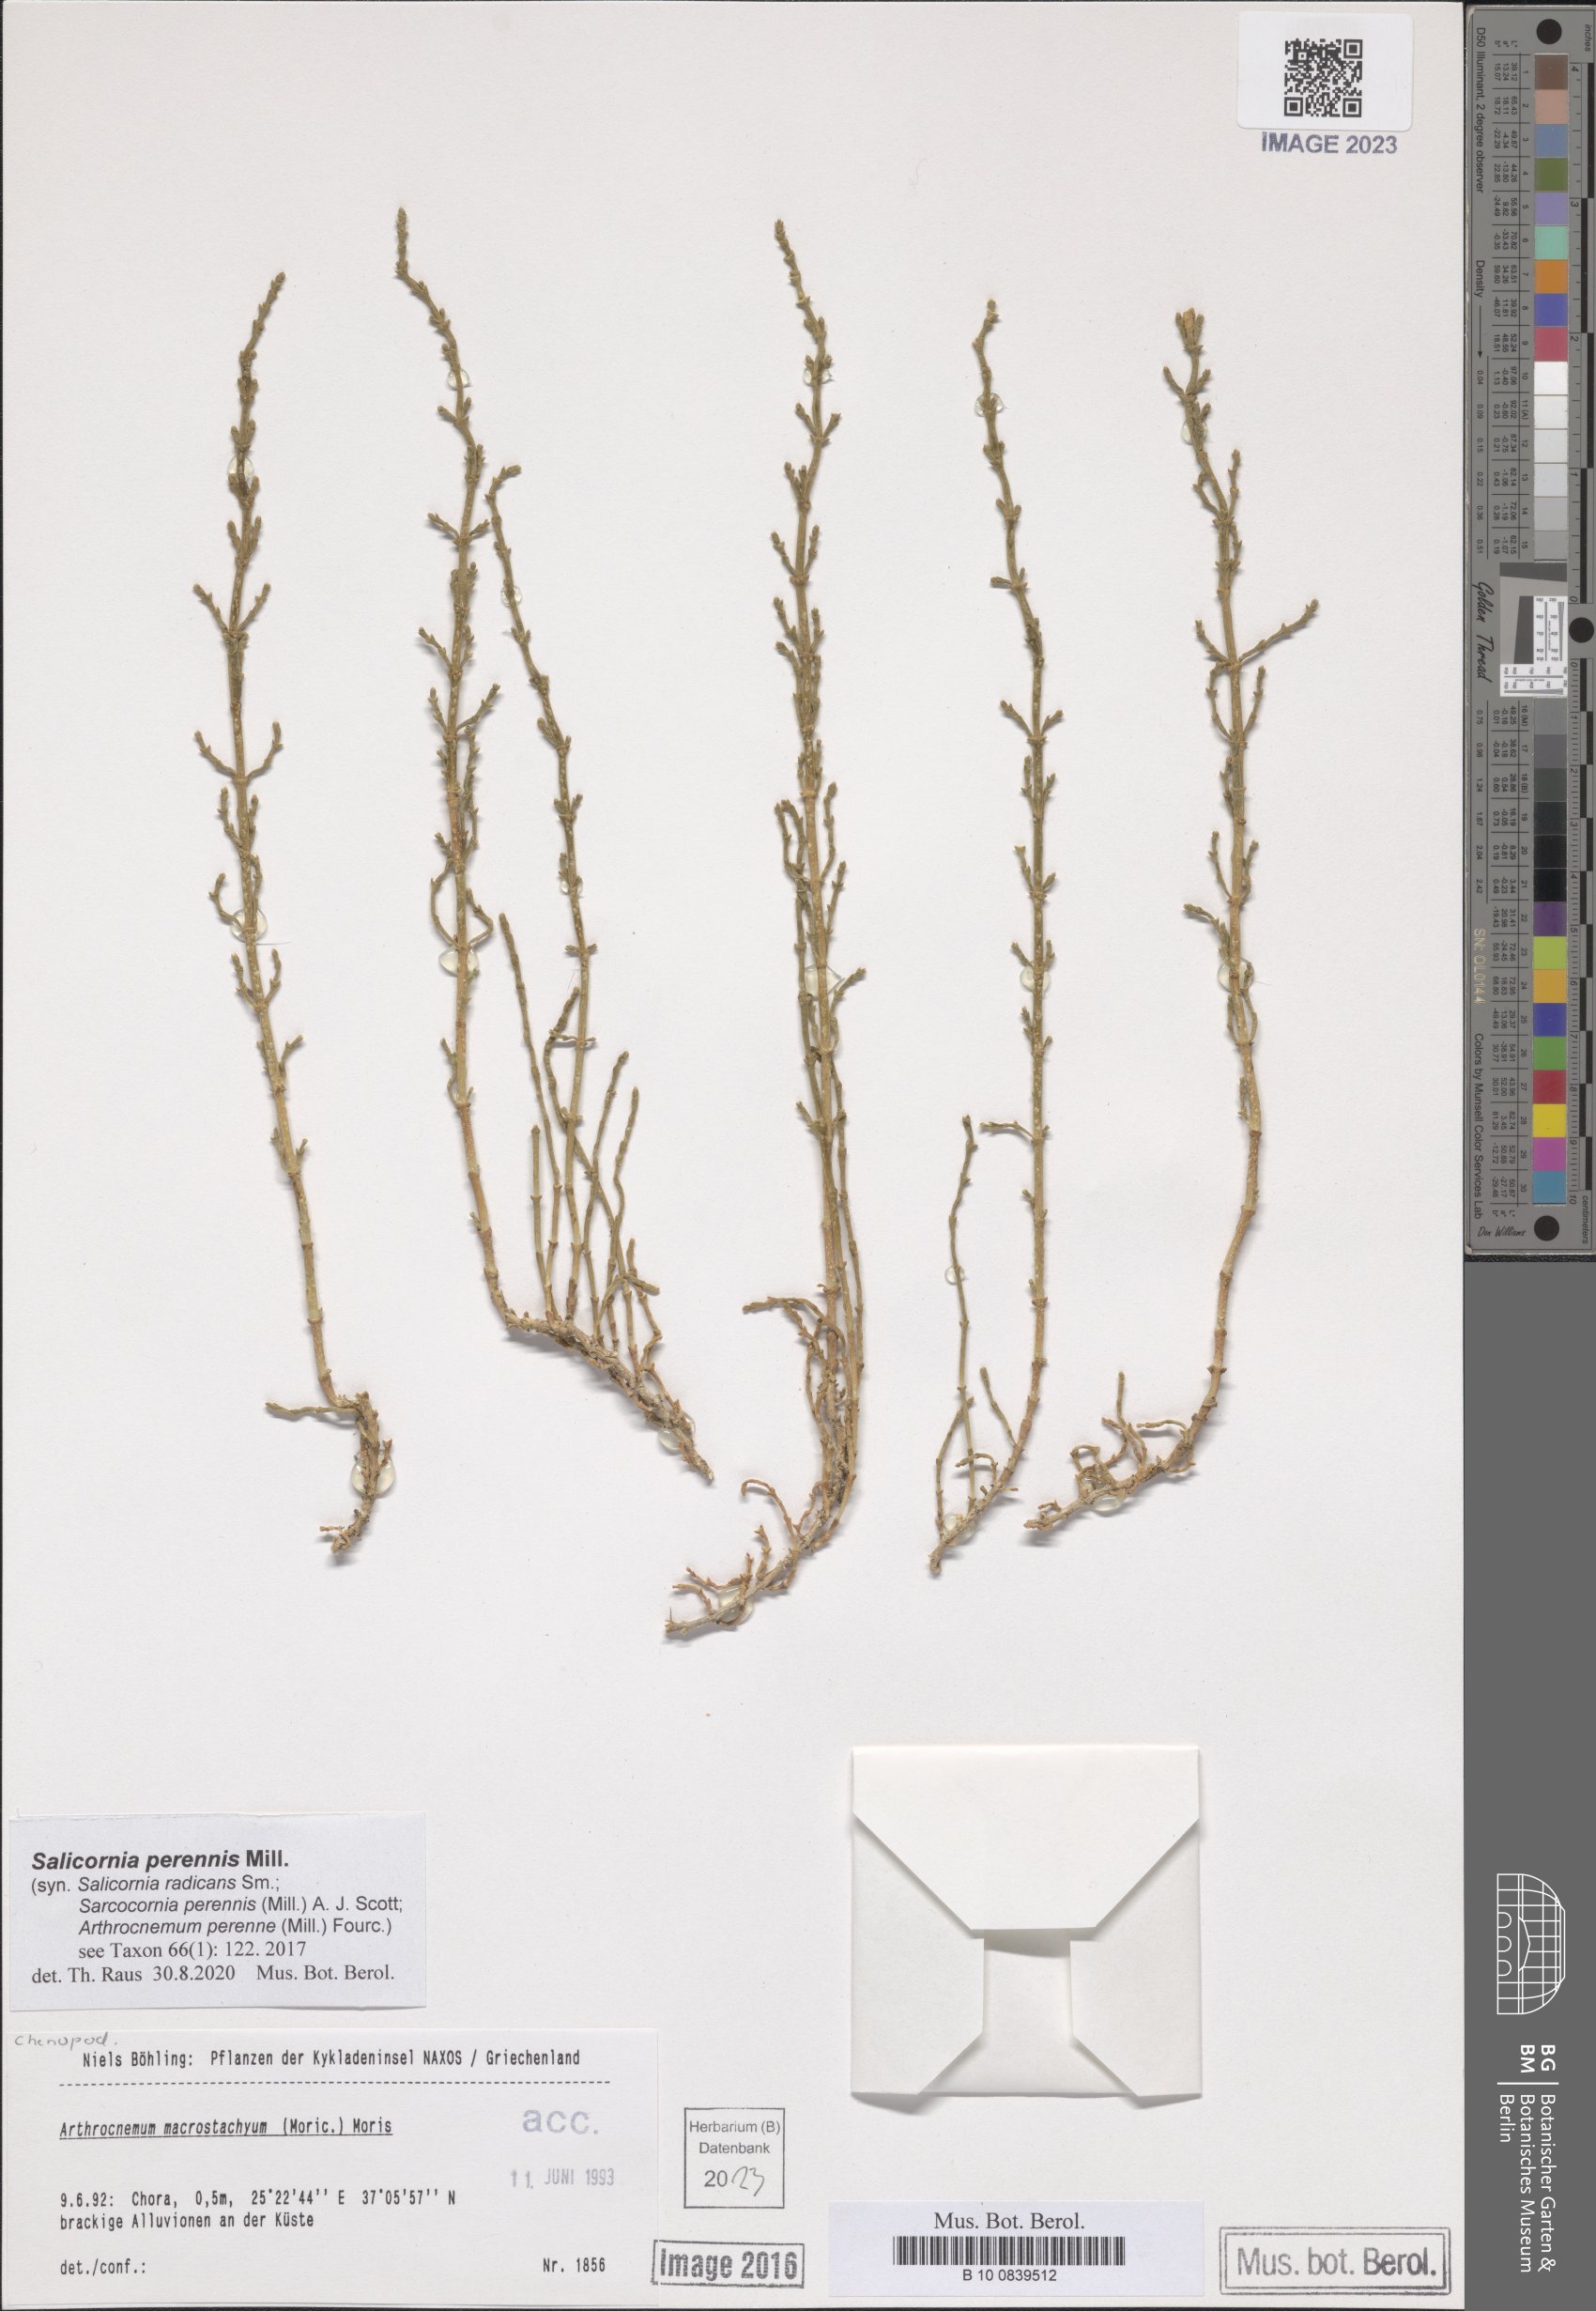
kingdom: Plantae
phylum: Tracheophyta
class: Magnoliopsida
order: Caryophyllales
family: Amaranthaceae
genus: Salicornia
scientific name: Salicornia perennis
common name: Chicken claws
